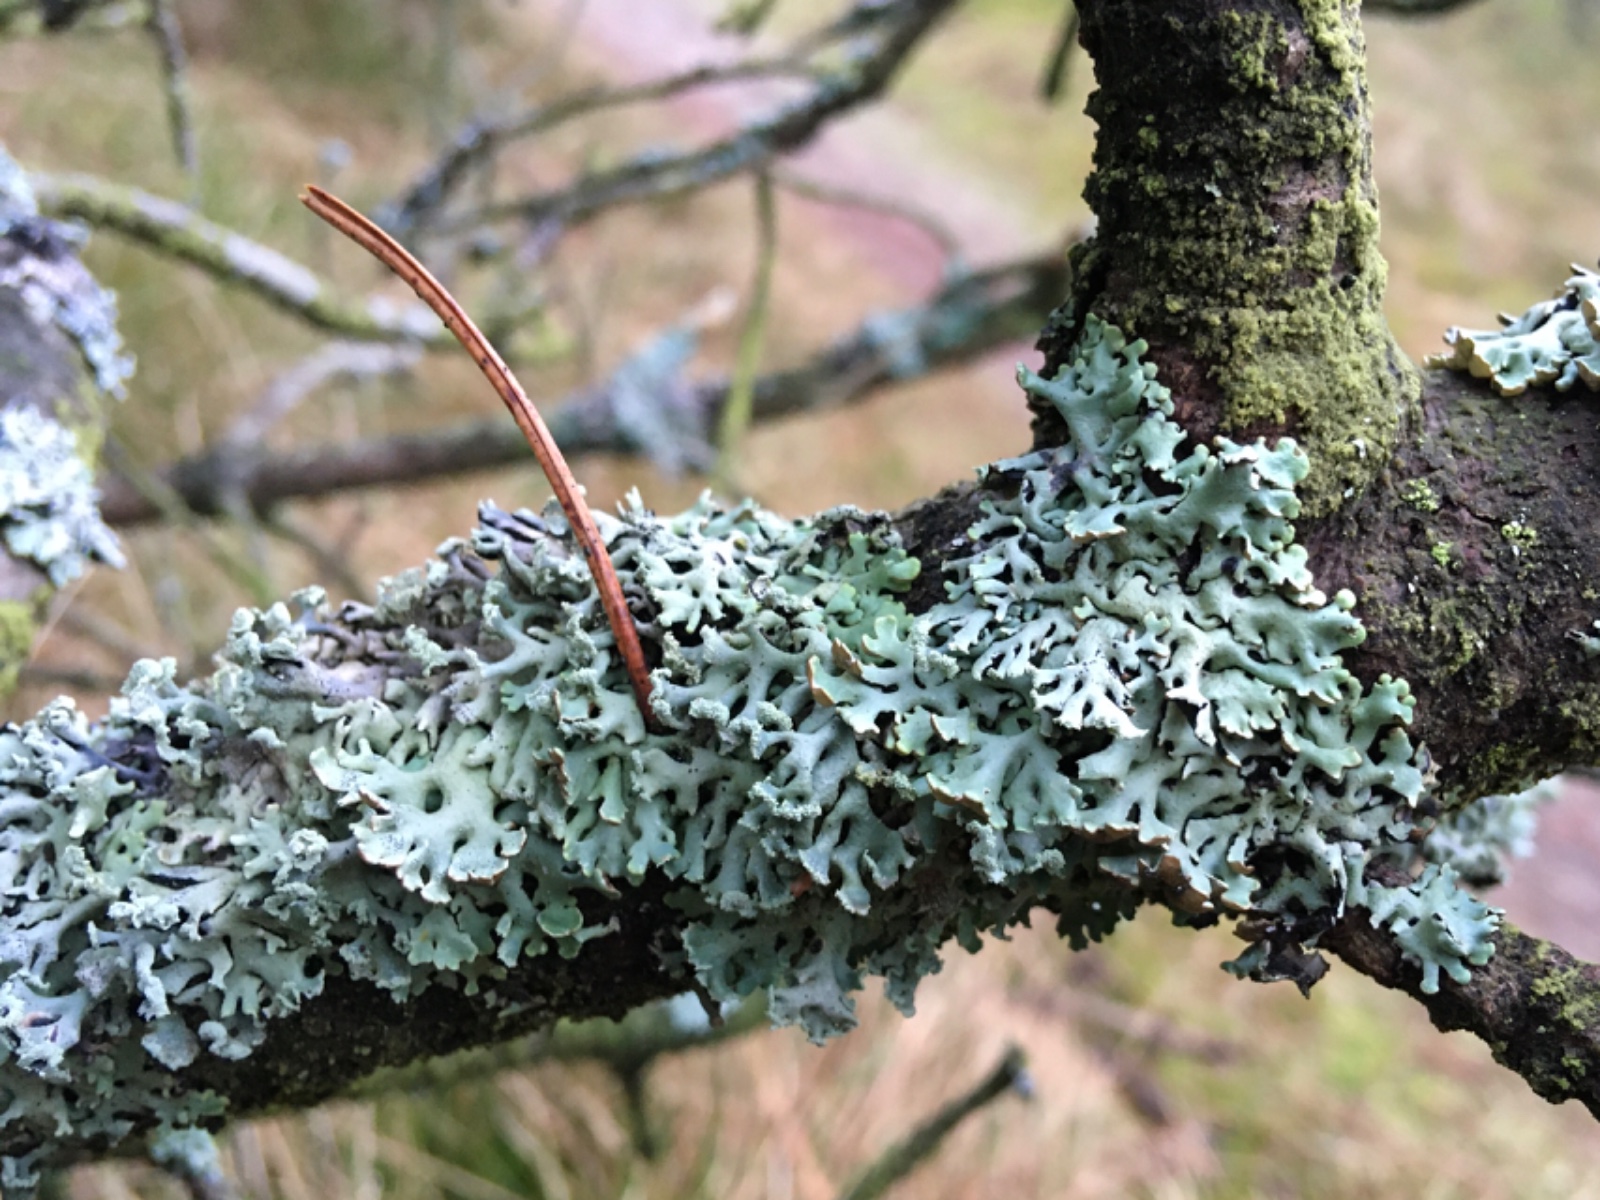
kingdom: Fungi
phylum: Ascomycota
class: Lecanoromycetes
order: Lecanorales
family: Parmeliaceae
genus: Hypogymnia
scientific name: Hypogymnia physodes
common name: almindelig kvistlav
